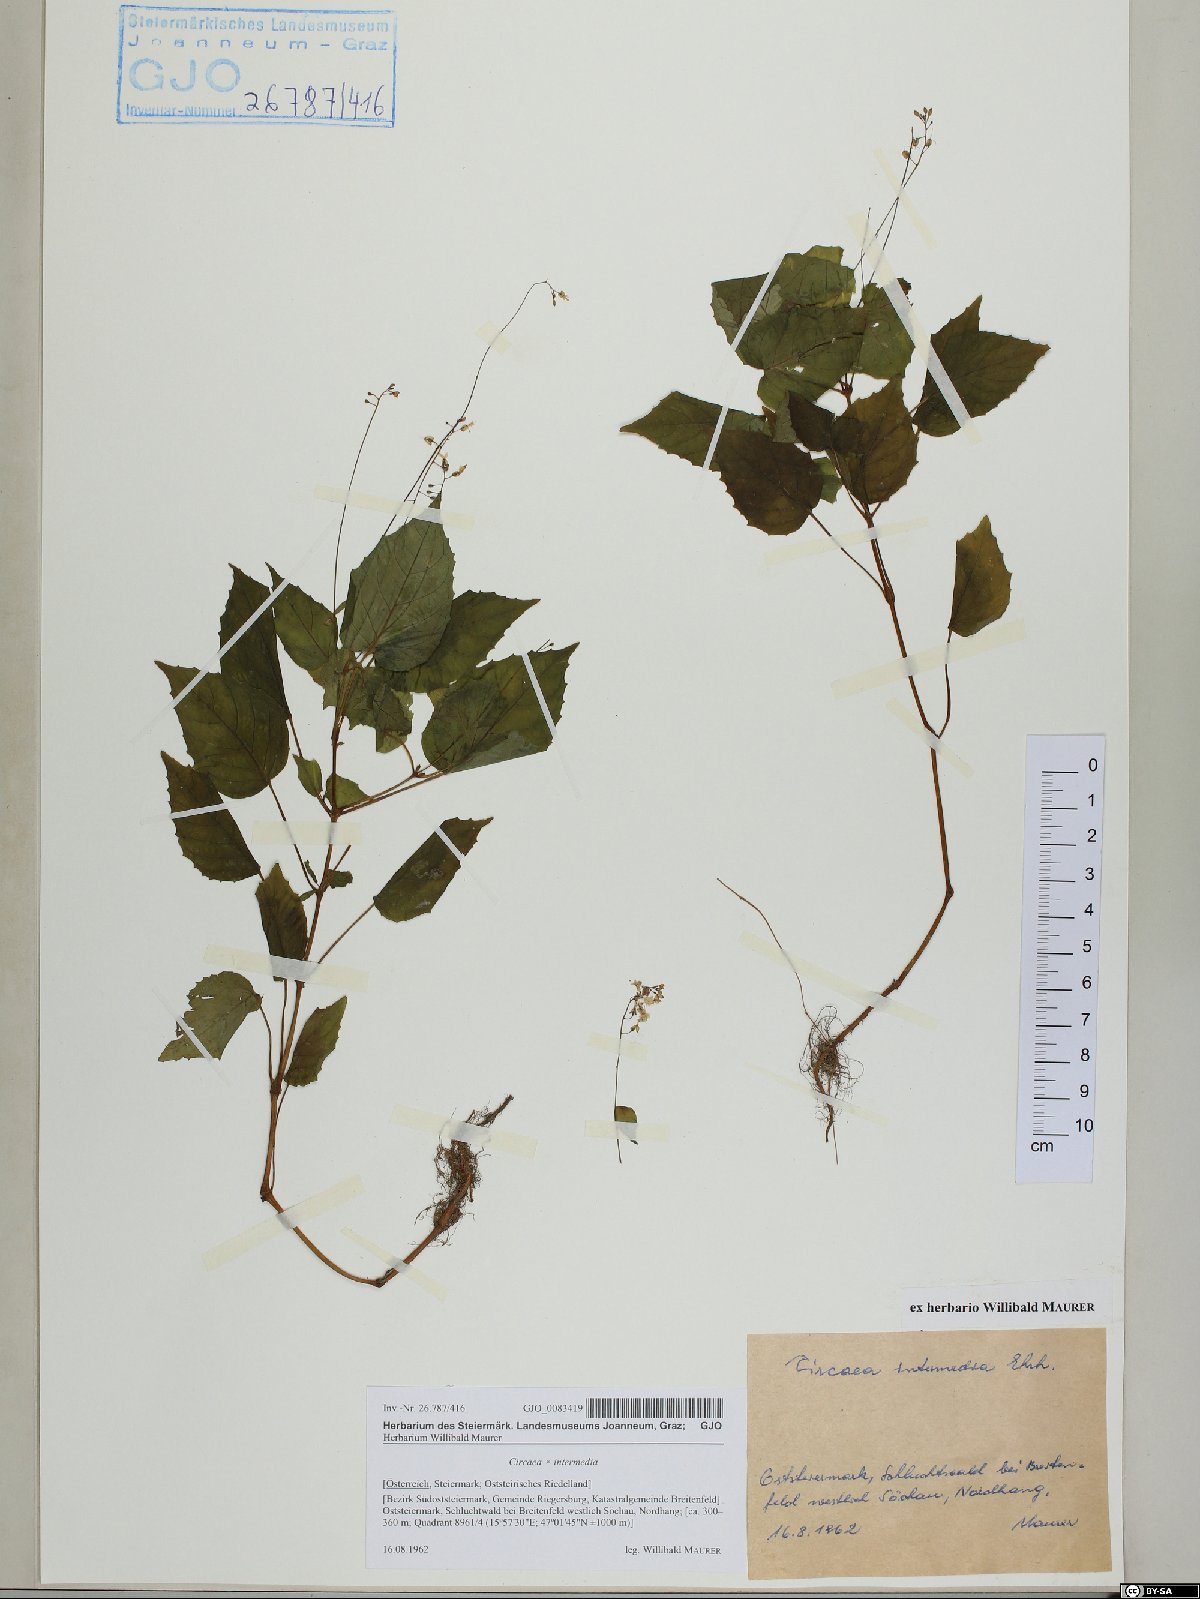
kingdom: Plantae
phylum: Tracheophyta
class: Magnoliopsida
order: Myrtales
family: Onagraceae
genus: Circaea
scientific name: Circaea intermedia
